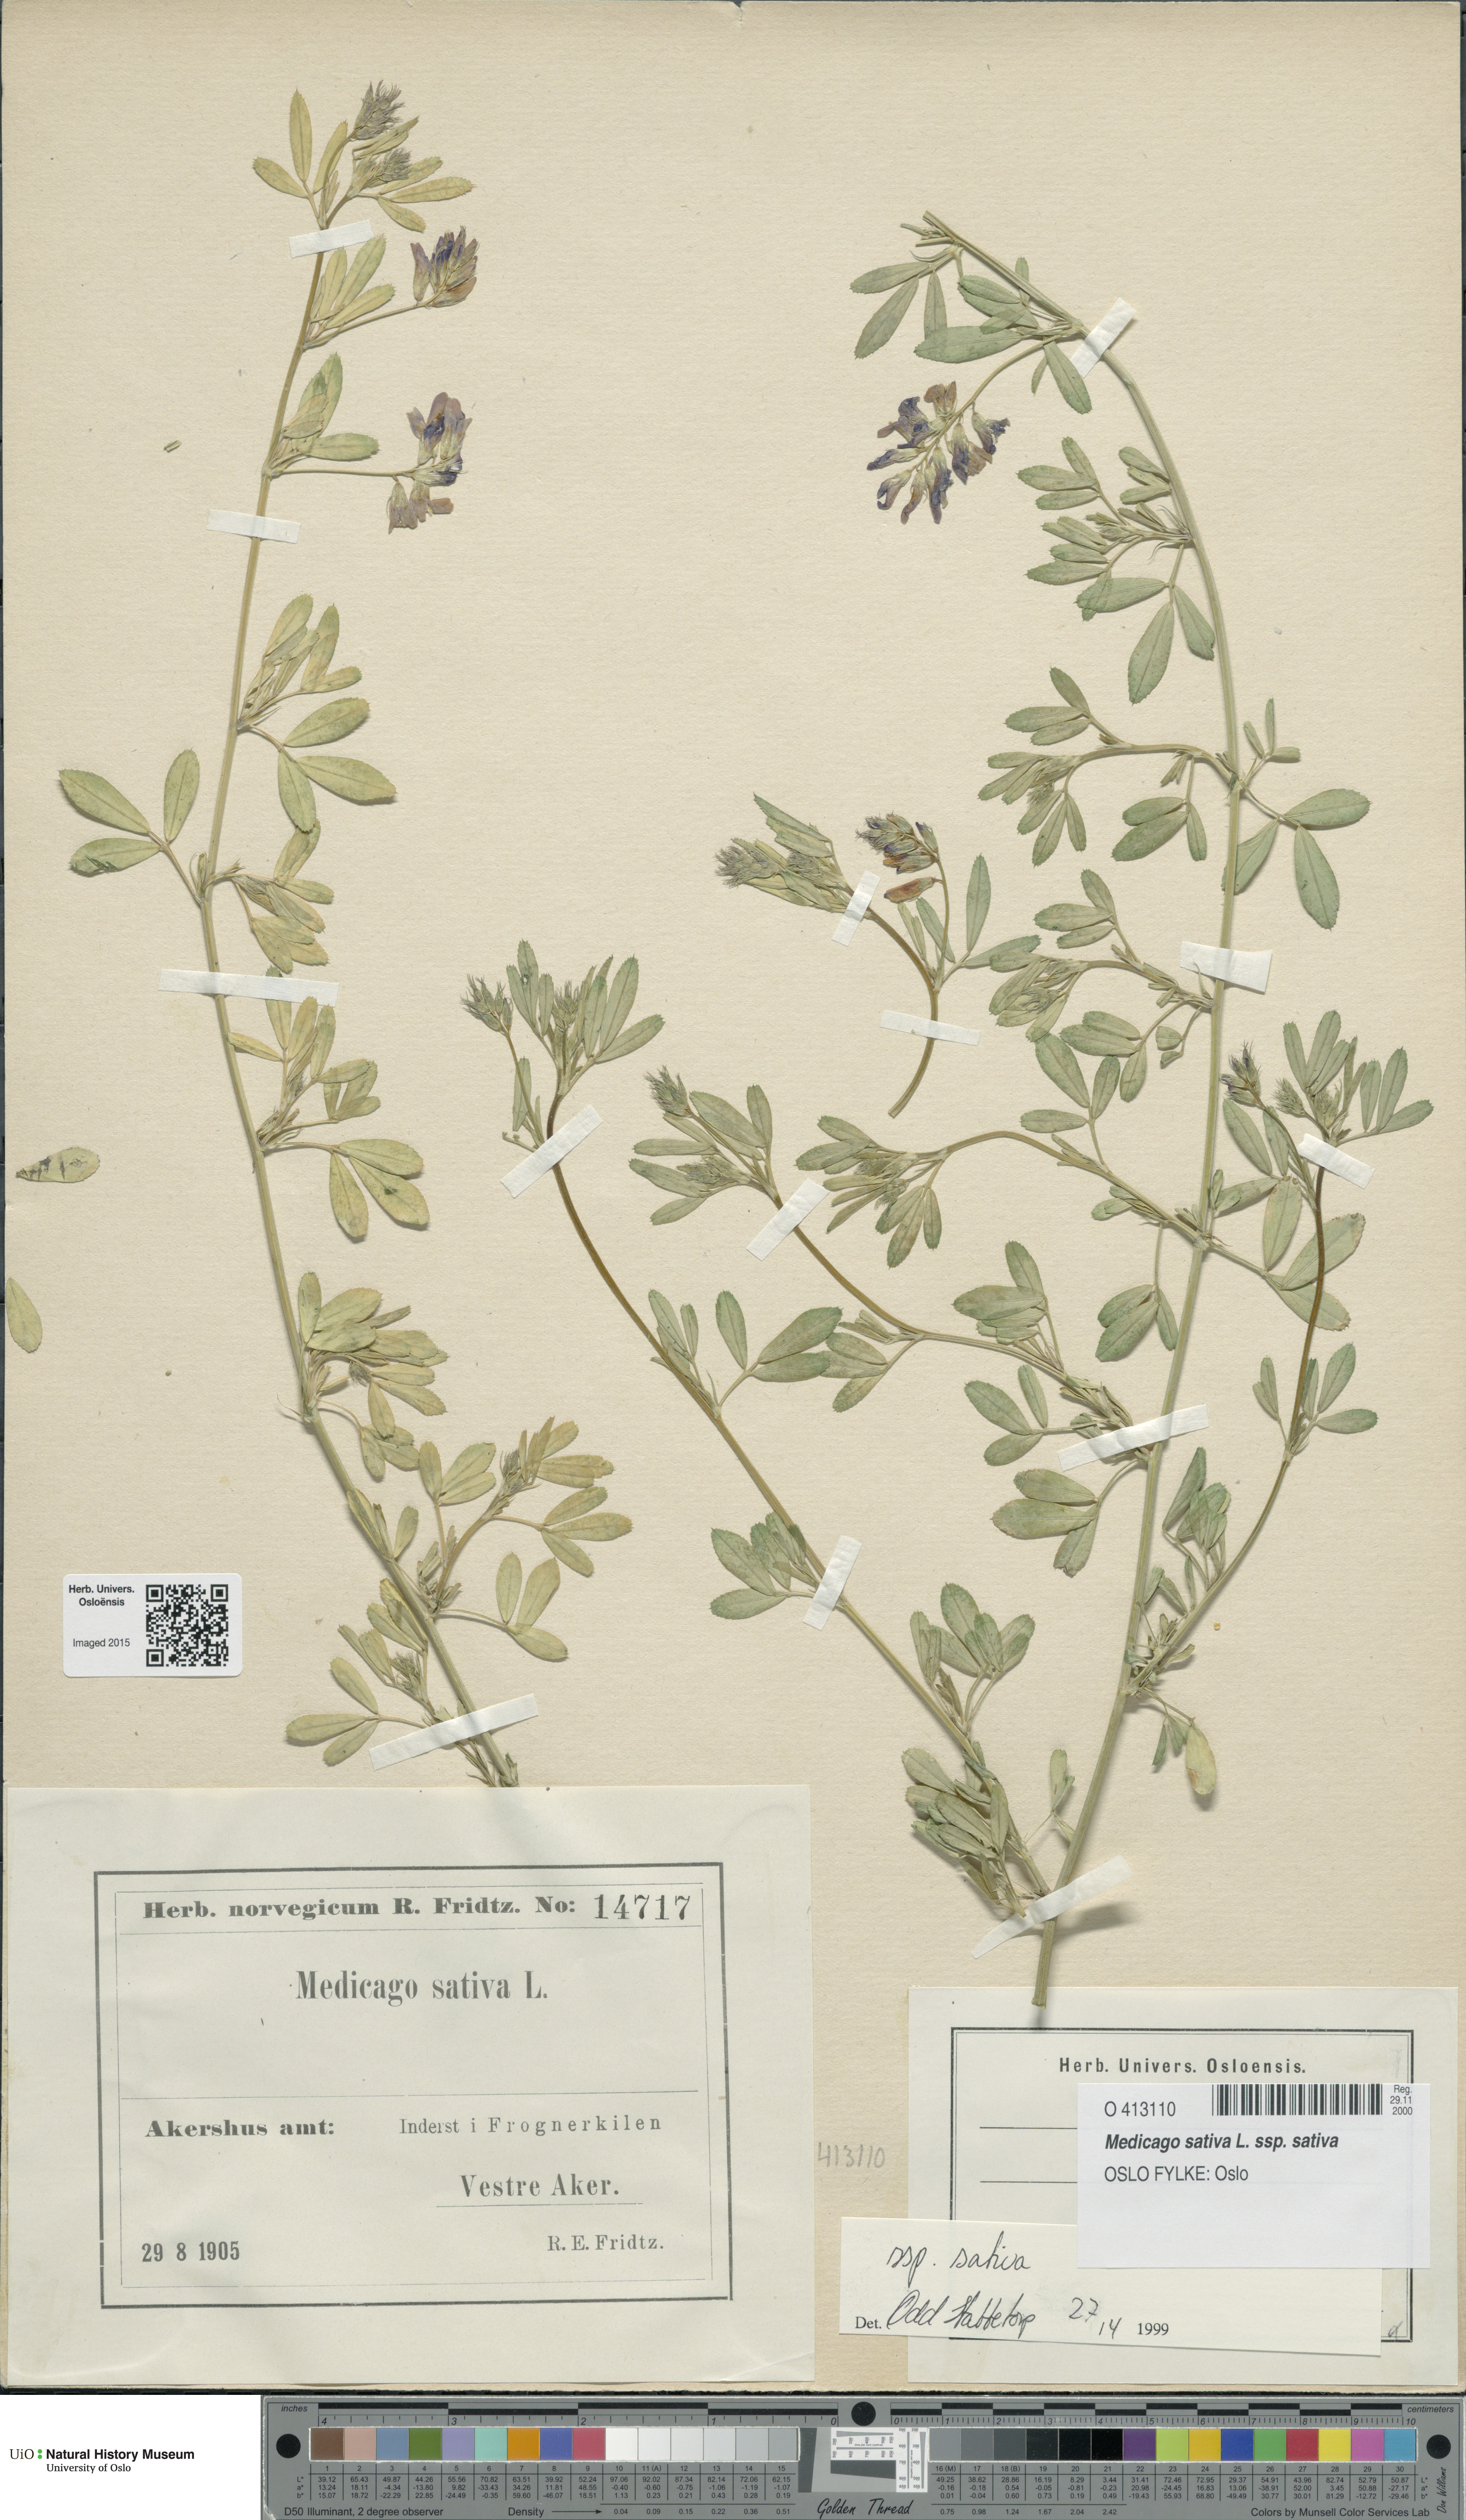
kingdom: Plantae
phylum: Tracheophyta
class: Magnoliopsida
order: Fabales
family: Fabaceae
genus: Medicago
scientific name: Medicago sativa
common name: Alfalfa
